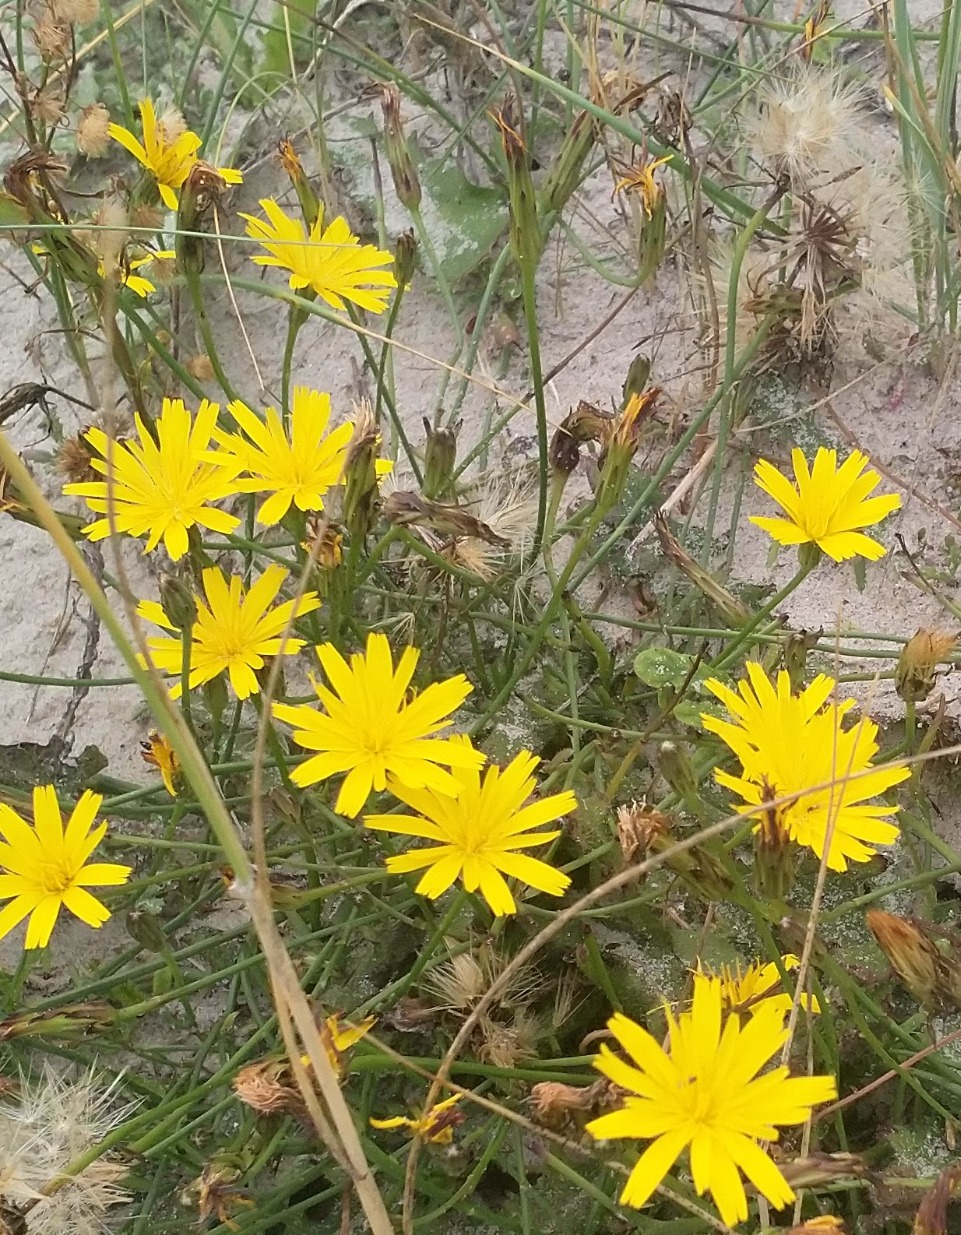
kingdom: Plantae
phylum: Tracheophyta
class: Magnoliopsida
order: Asterales
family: Asteraceae
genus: Hypochaeris
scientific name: Hypochaeris radicata
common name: Almindelig kongepen
